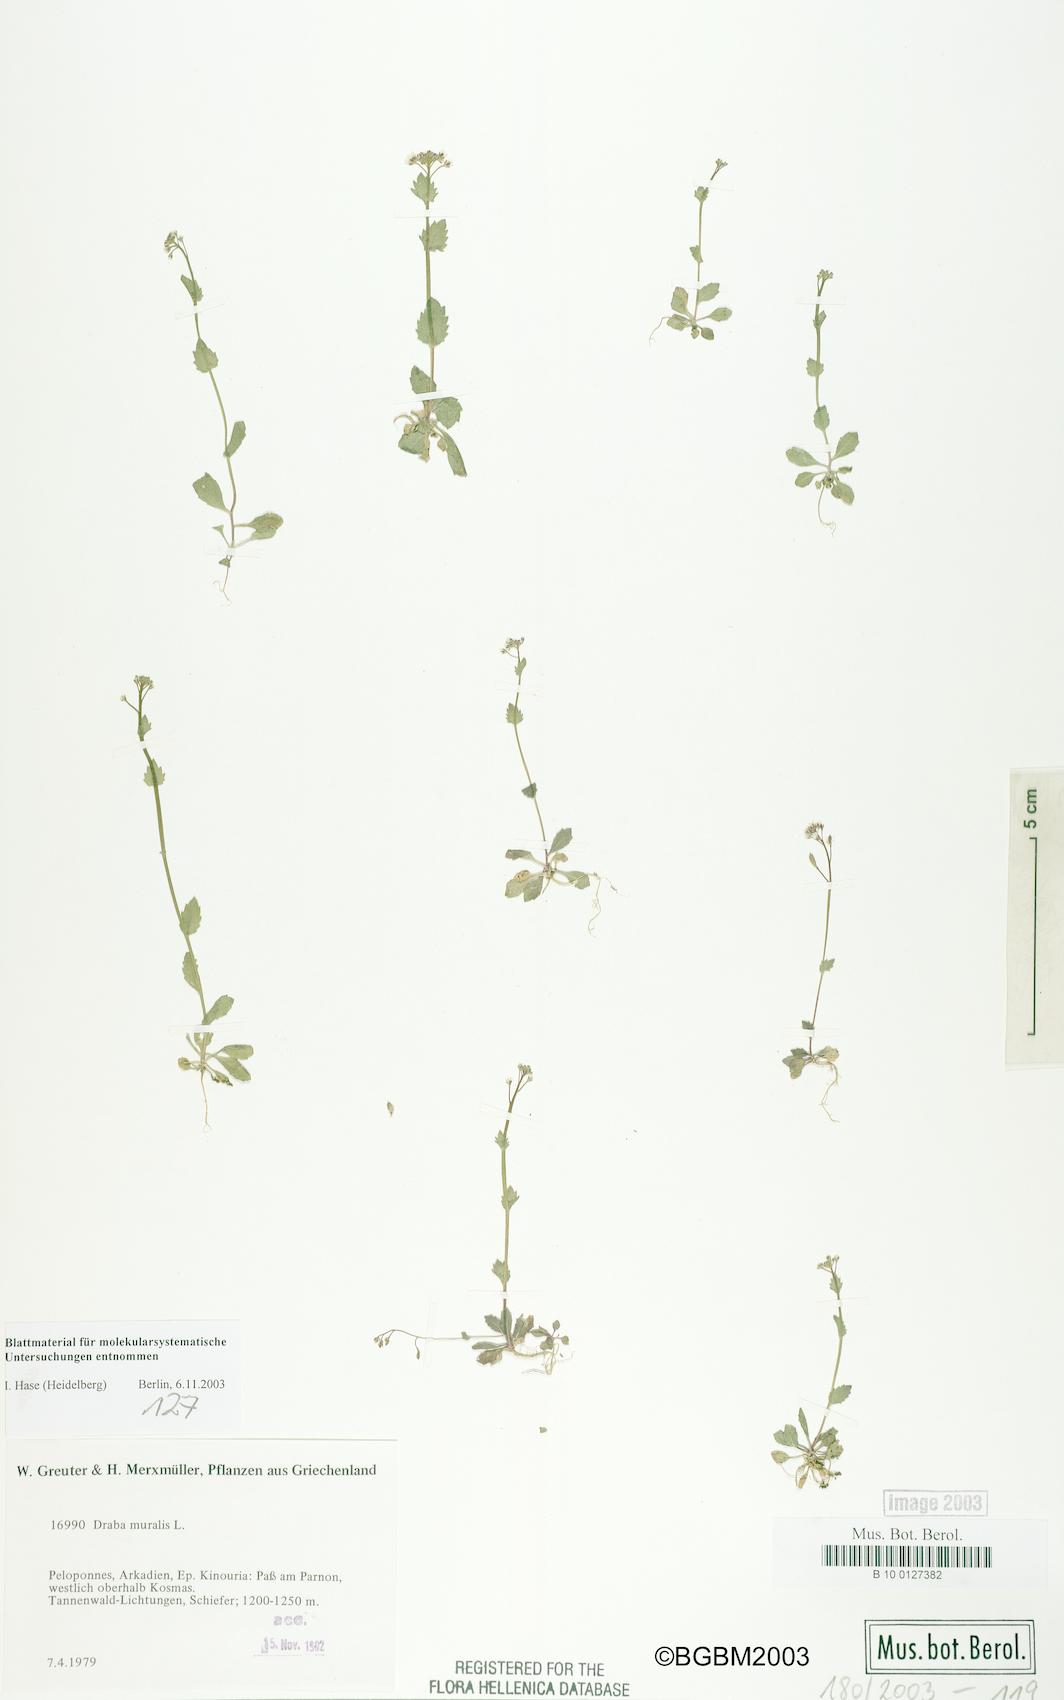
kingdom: Plantae
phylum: Tracheophyta
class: Magnoliopsida
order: Brassicales
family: Brassicaceae
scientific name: Brassicaceae
